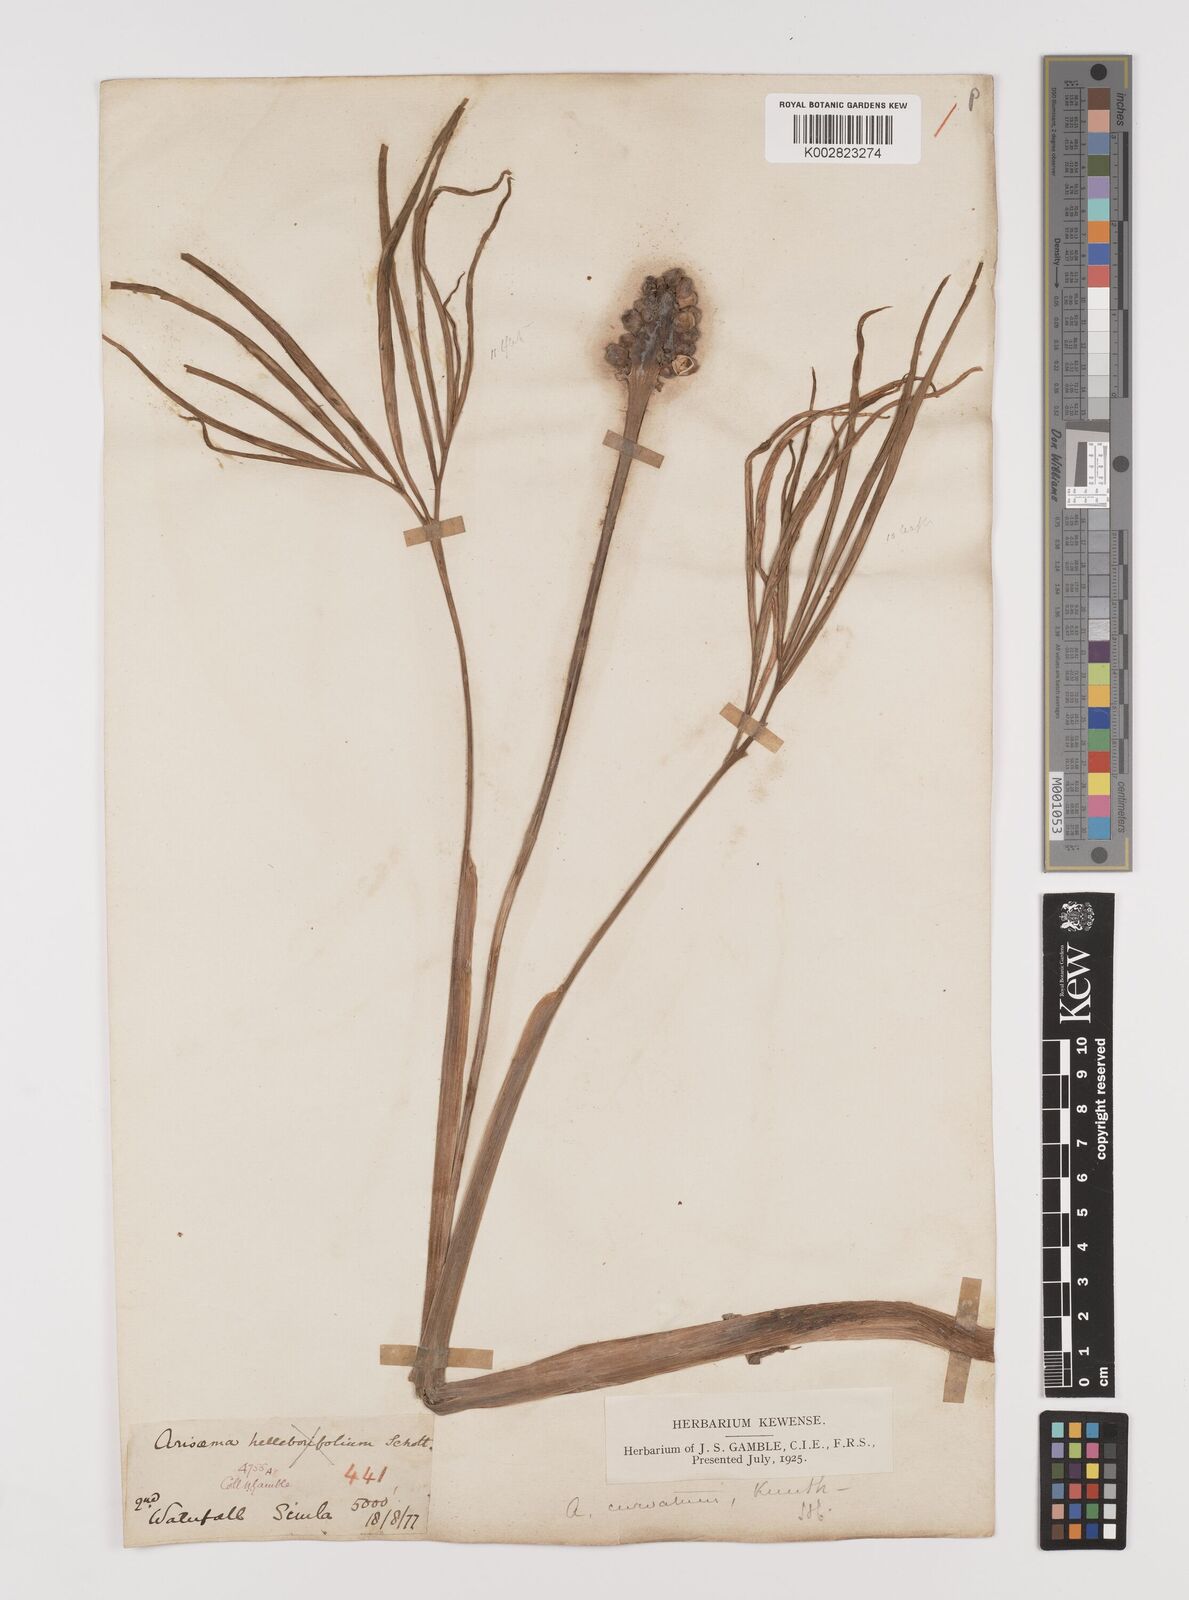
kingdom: Plantae
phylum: Tracheophyta
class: Liliopsida
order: Alismatales
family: Araceae
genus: Arisaema
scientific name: Arisaema tortuosum
